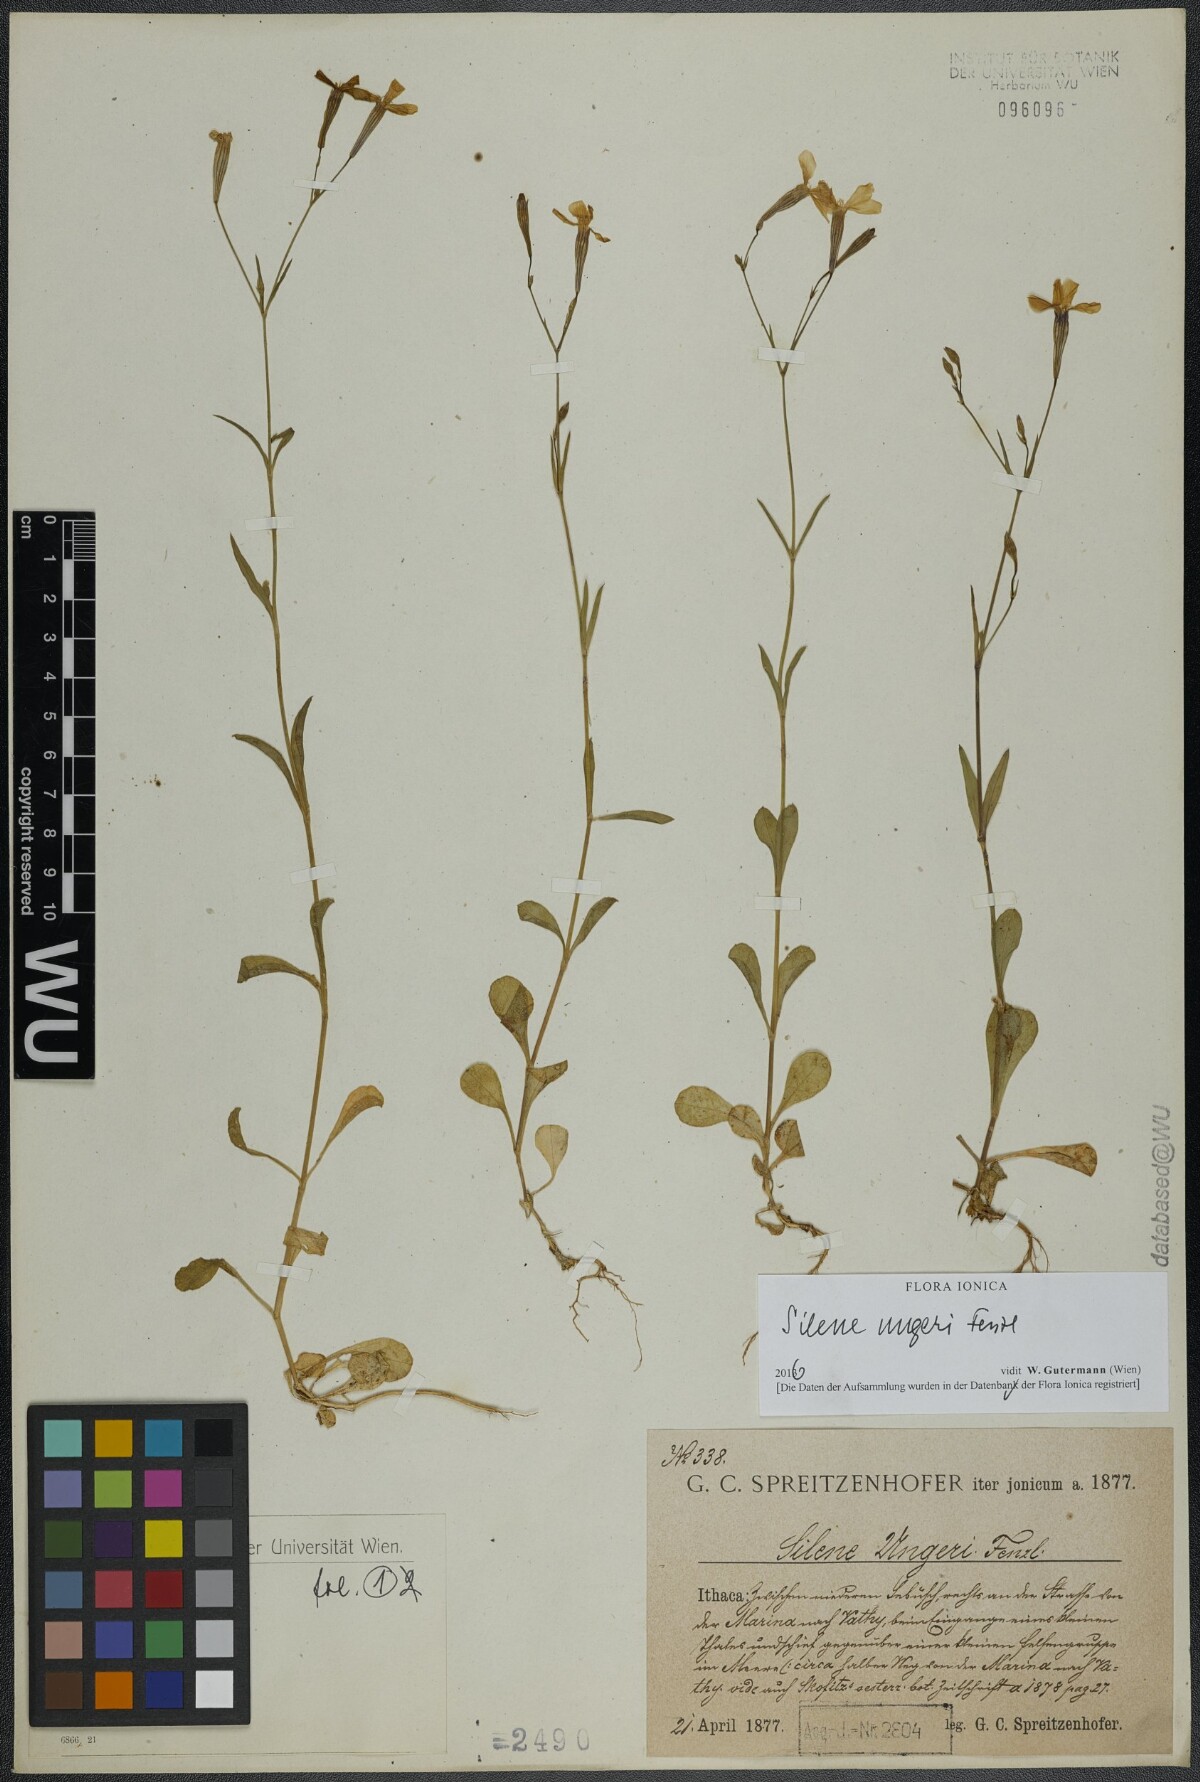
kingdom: Plantae
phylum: Tracheophyta
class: Magnoliopsida
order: Caryophyllales
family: Caryophyllaceae
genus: Silene
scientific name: Silene ungeri
